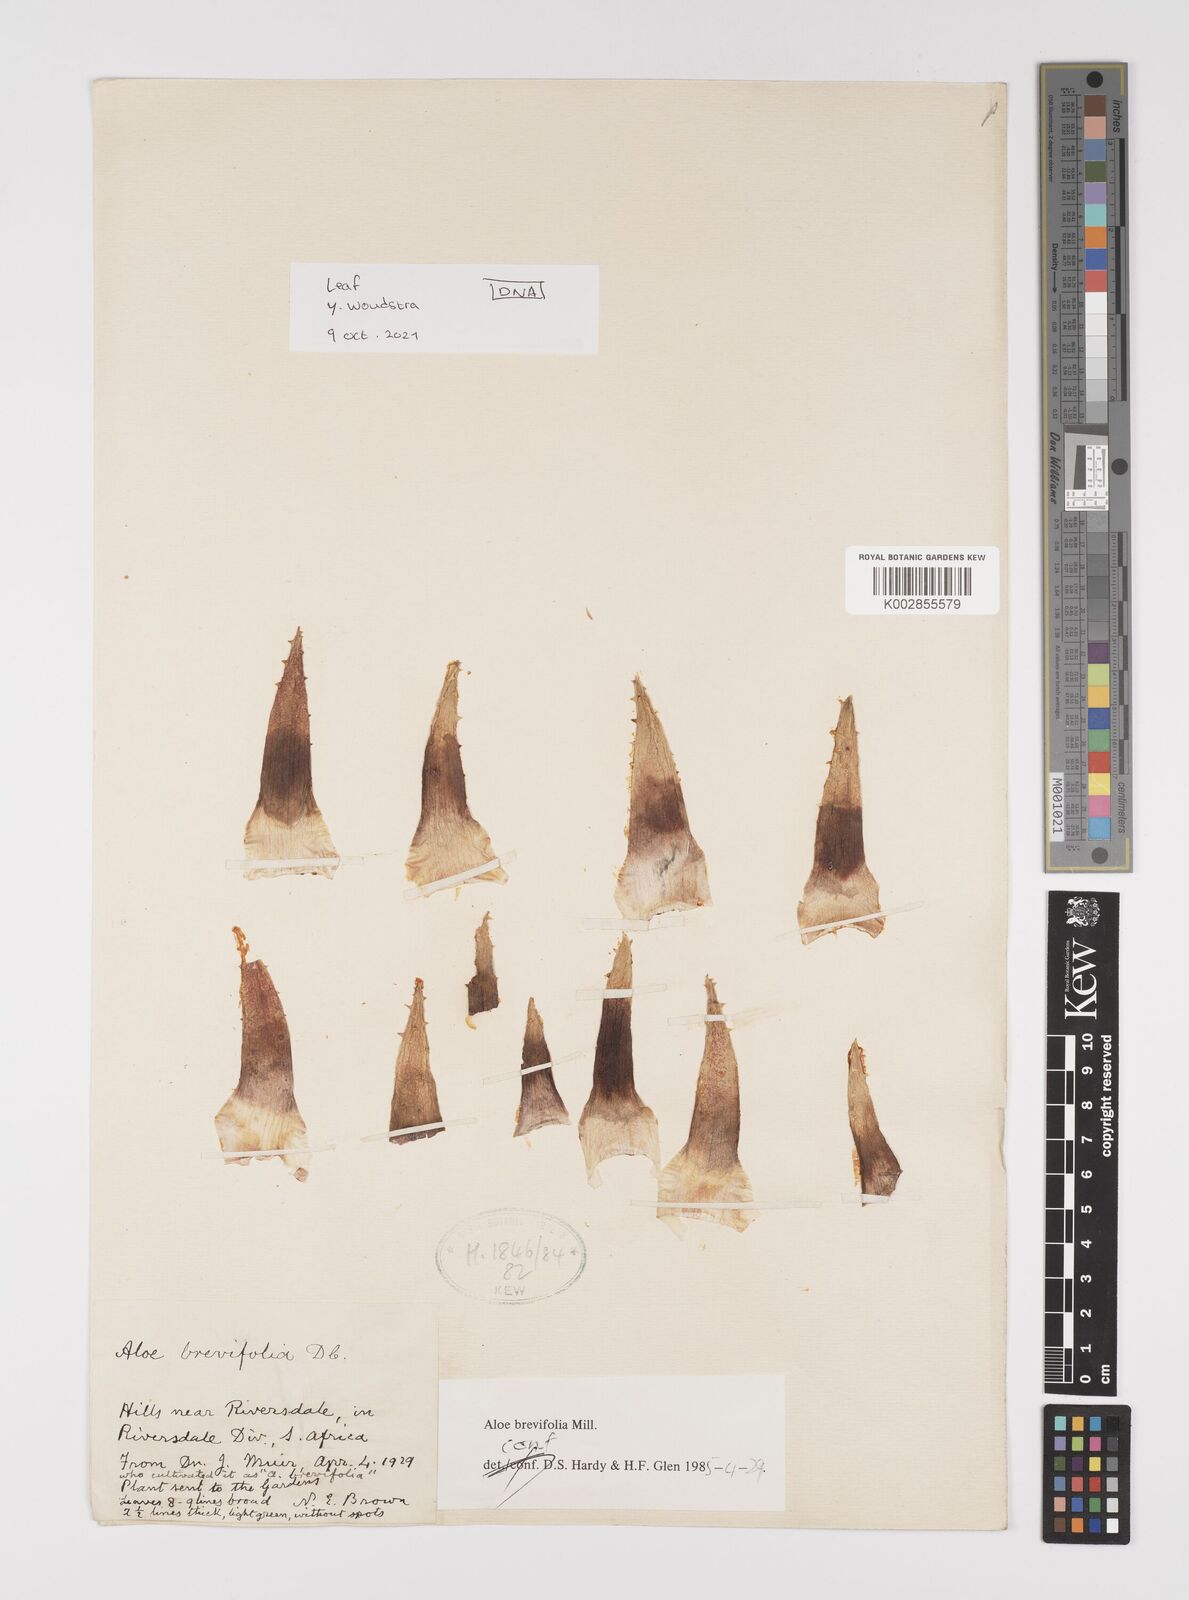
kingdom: Plantae
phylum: Tracheophyta
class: Liliopsida
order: Asparagales
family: Asphodelaceae
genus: Aloe
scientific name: Aloe brevifolia
